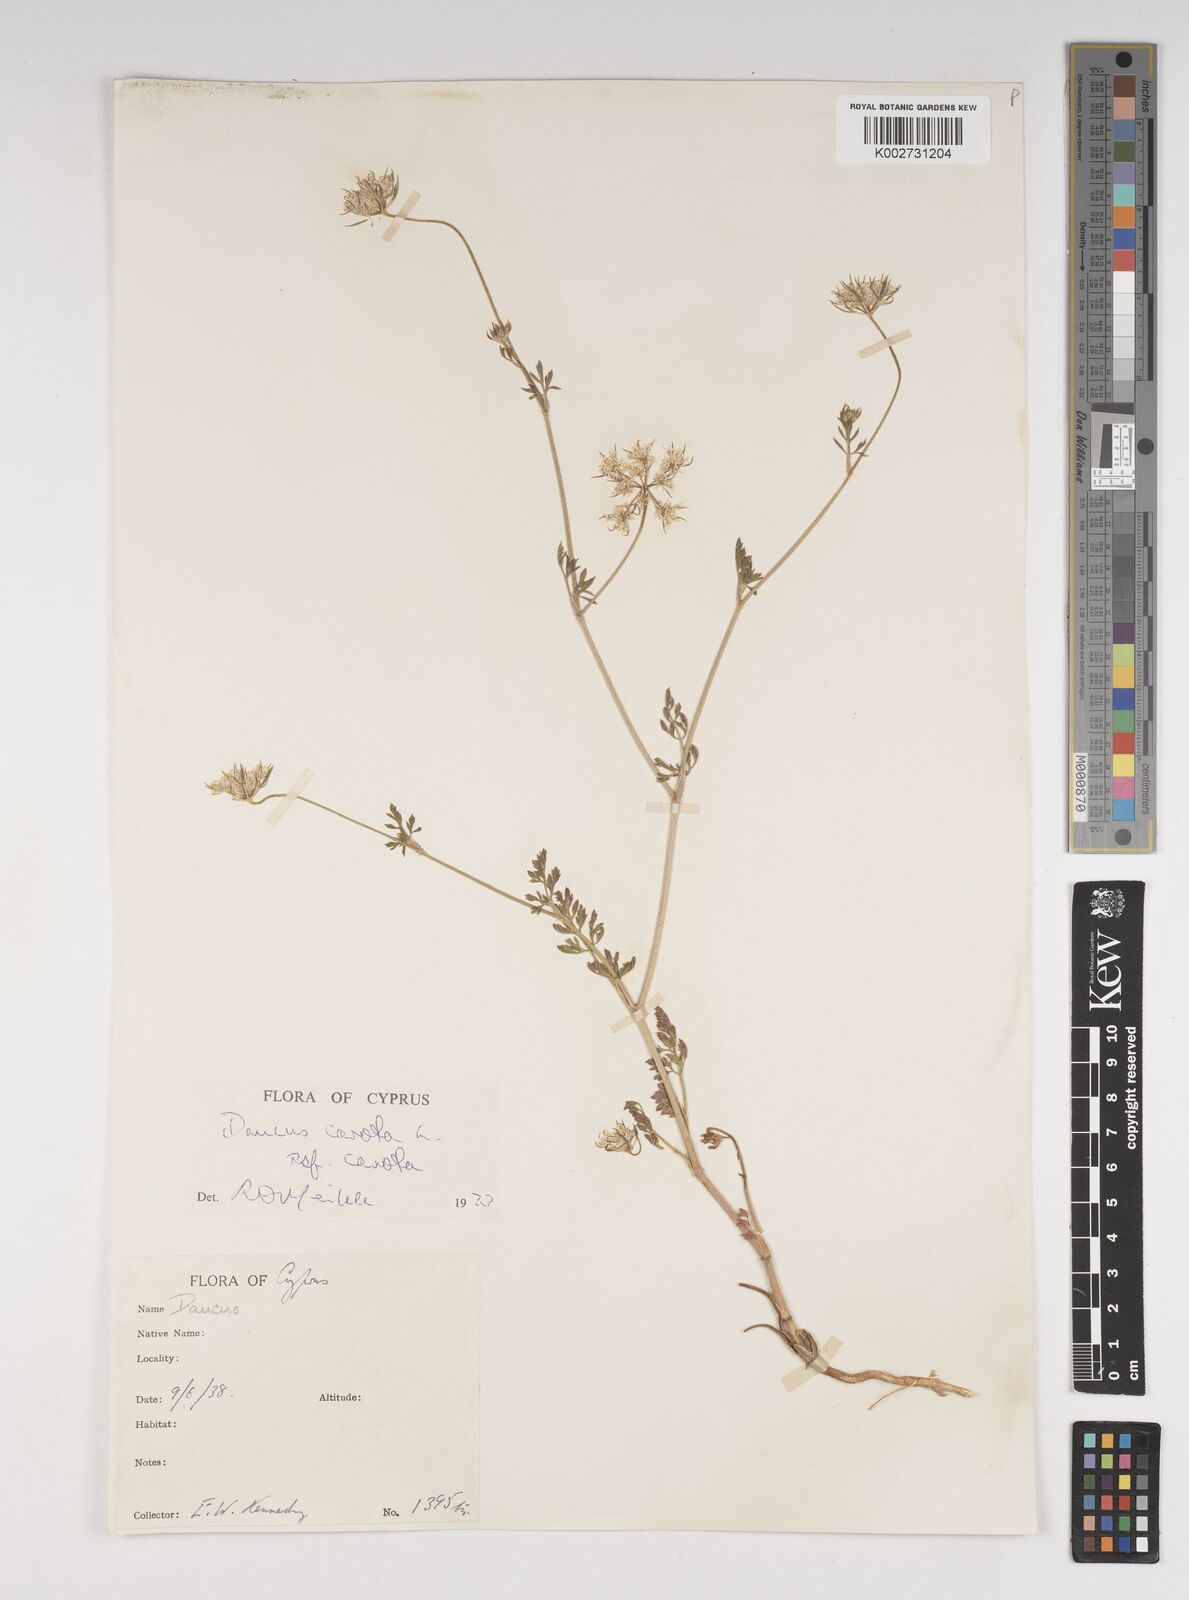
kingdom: Plantae
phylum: Tracheophyta
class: Magnoliopsida
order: Apiales
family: Apiaceae
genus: Daucus
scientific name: Daucus carota
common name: Wild carrot
